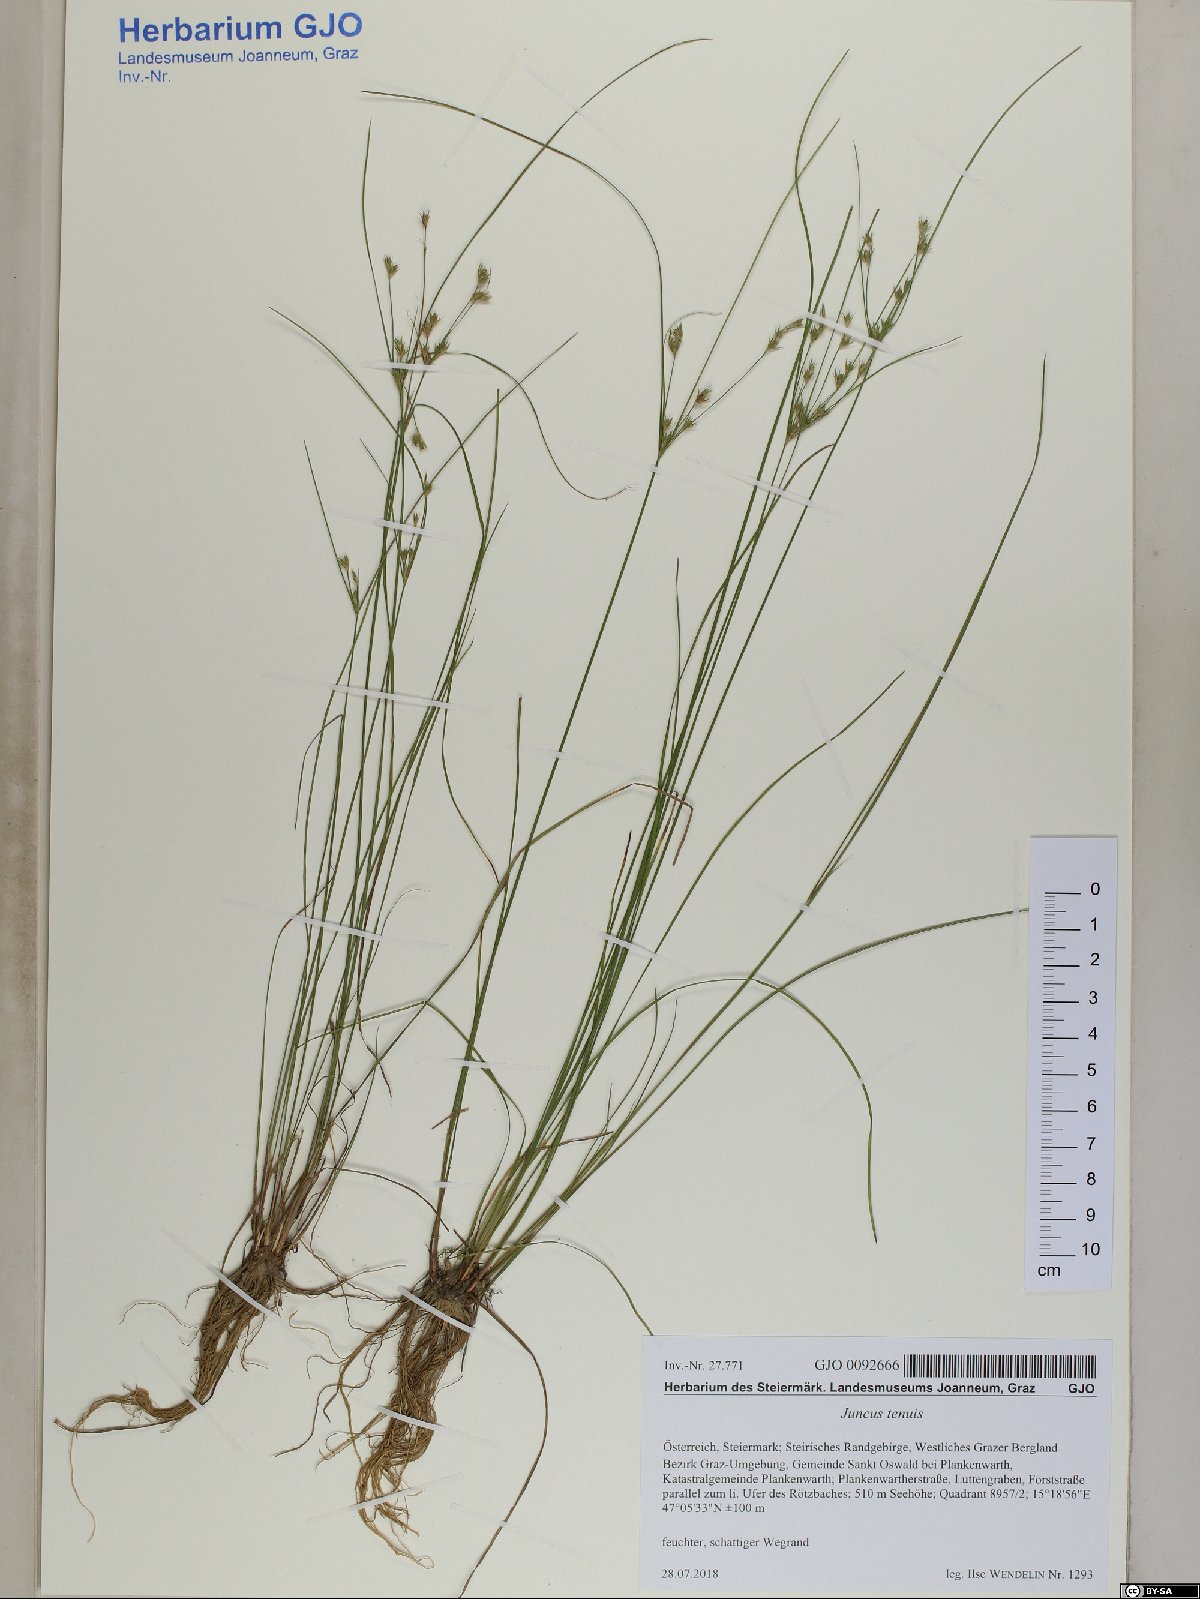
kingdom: Plantae
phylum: Tracheophyta
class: Liliopsida
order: Poales
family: Juncaceae
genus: Juncus
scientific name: Juncus tenuis
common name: Slender rush
